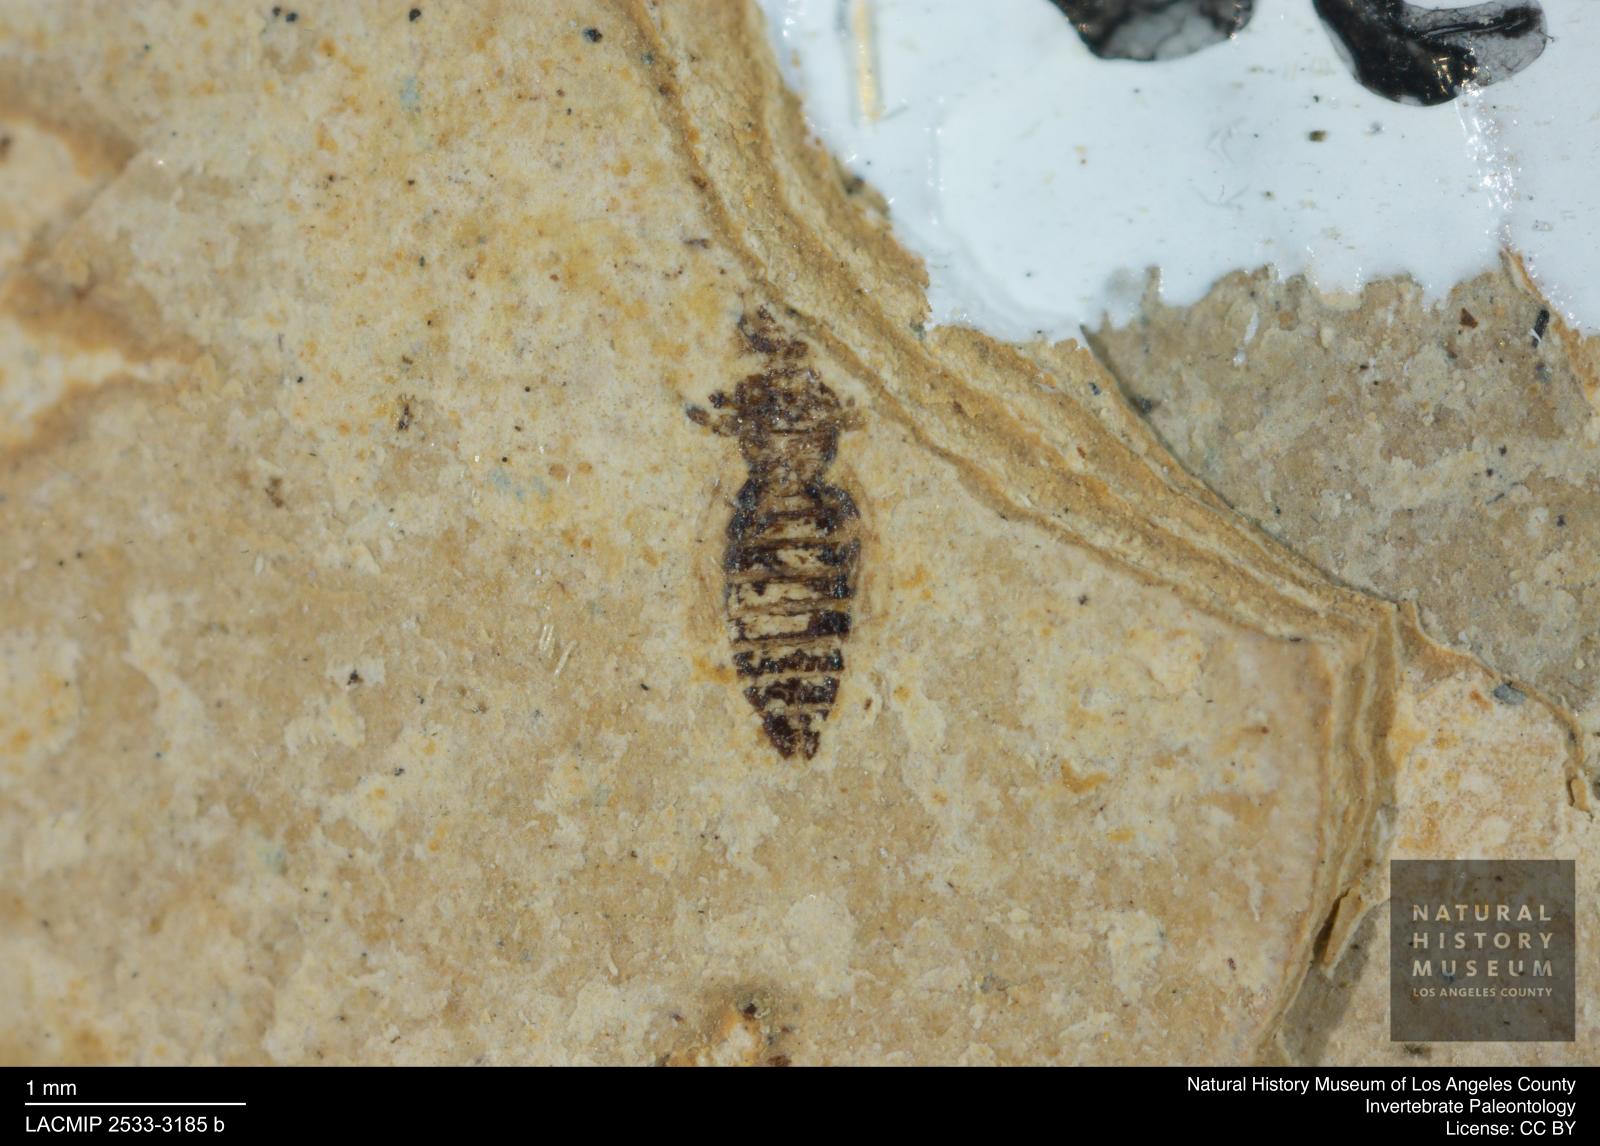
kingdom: Animalia
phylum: Arthropoda
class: Insecta
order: Thysanoptera
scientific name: Thysanoptera
